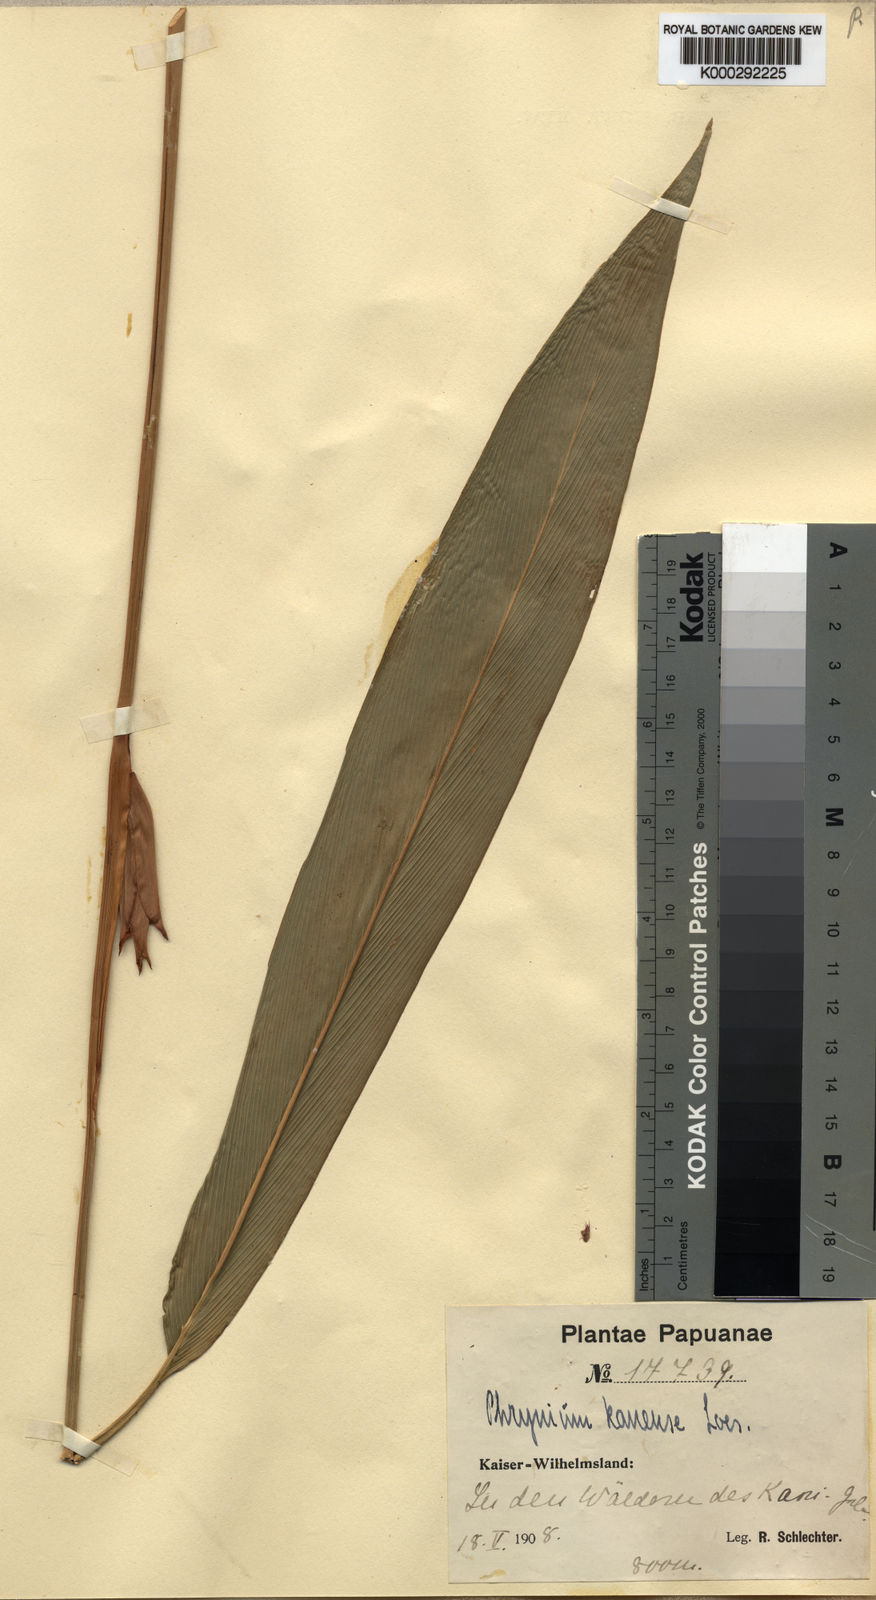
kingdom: Plantae
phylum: Tracheophyta
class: Liliopsida
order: Zingiberales
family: Marantaceae
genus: Phrynium
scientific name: Phrynium kaniense
